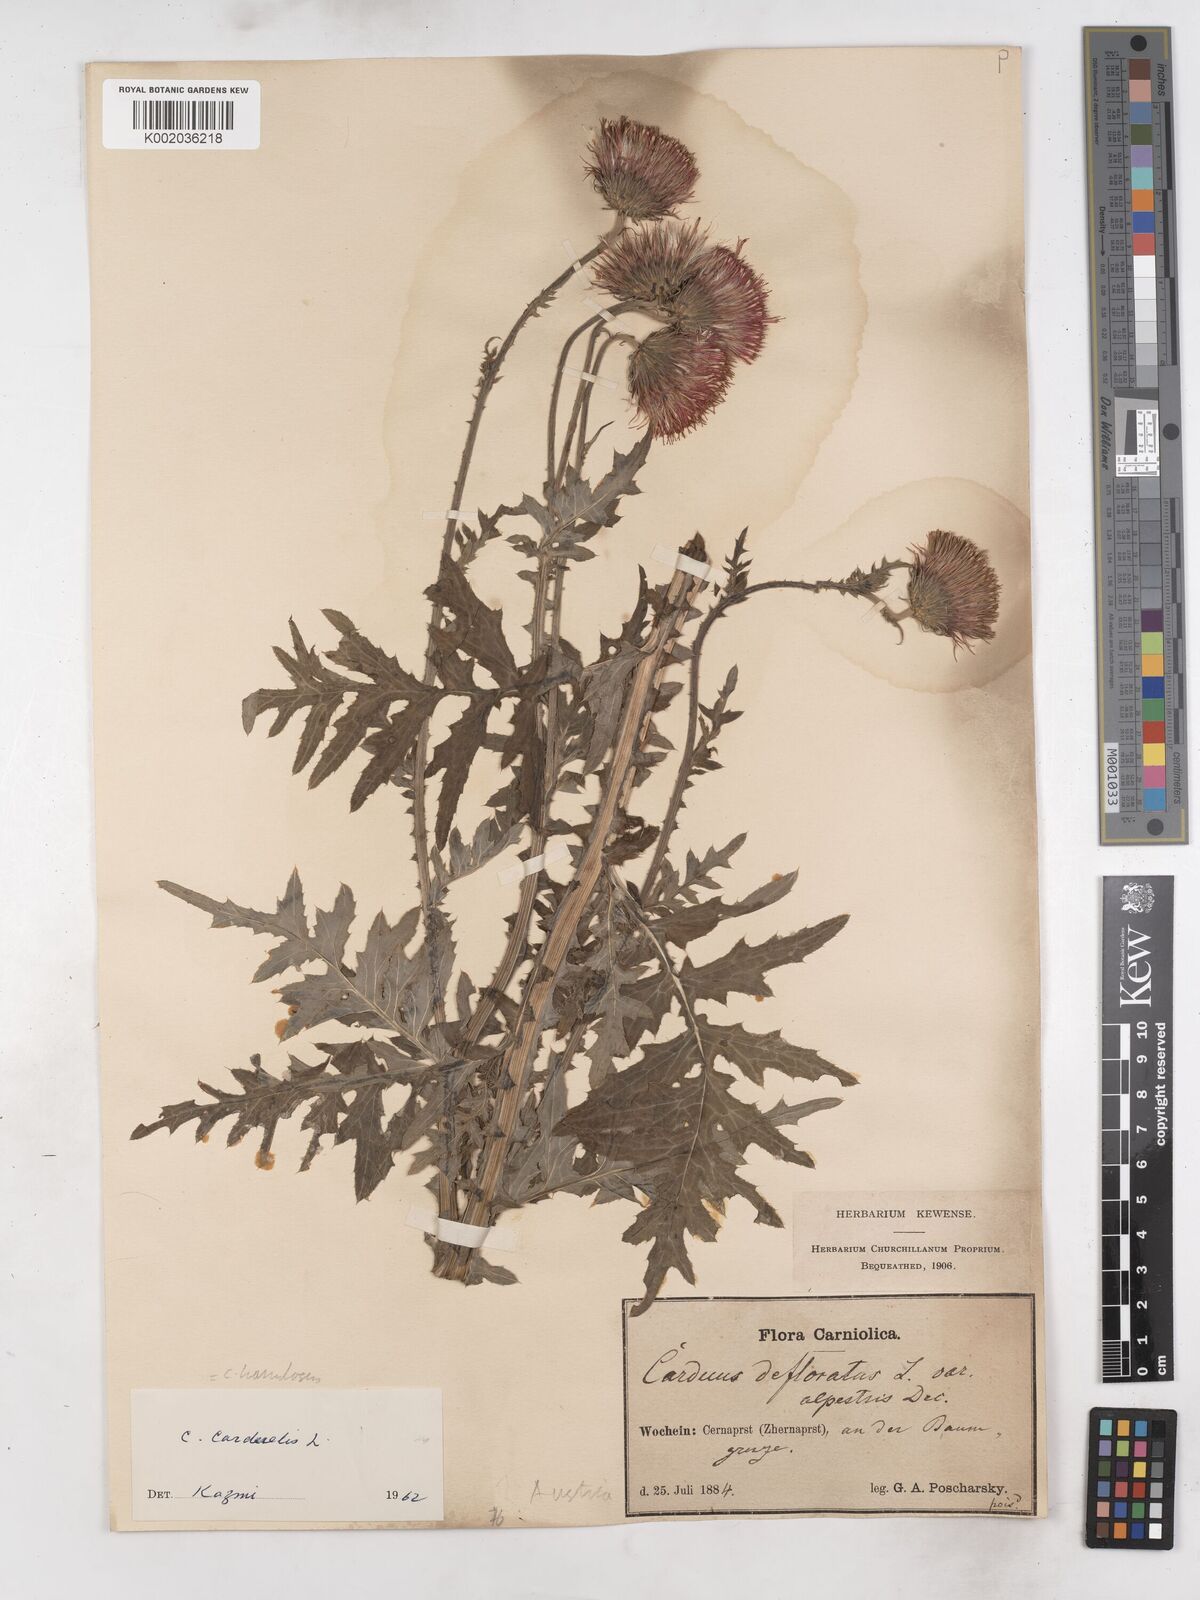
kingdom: Plantae
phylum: Tracheophyta
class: Magnoliopsida
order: Asterales
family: Asteraceae
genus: Carduus
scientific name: Carduus uncinatus
